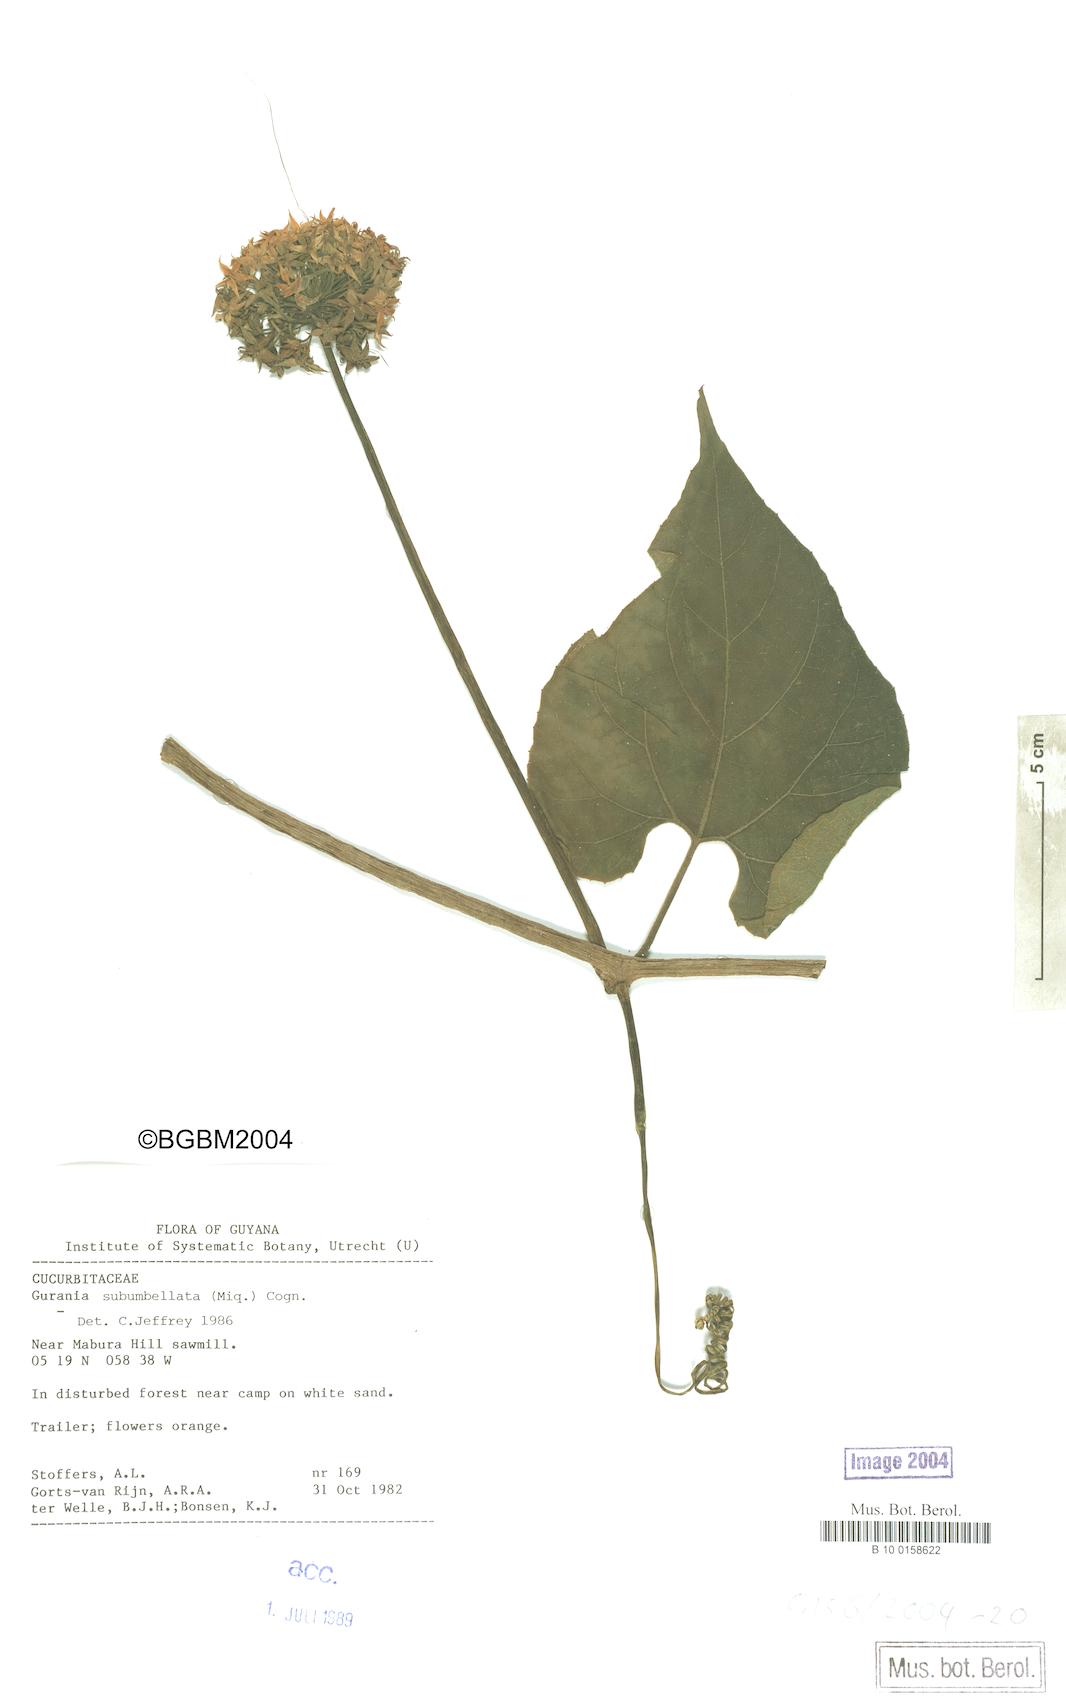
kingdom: Plantae
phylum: Tracheophyta
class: Magnoliopsida
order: Cucurbitales
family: Cucurbitaceae
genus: Gurania
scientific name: Gurania subumbellata
